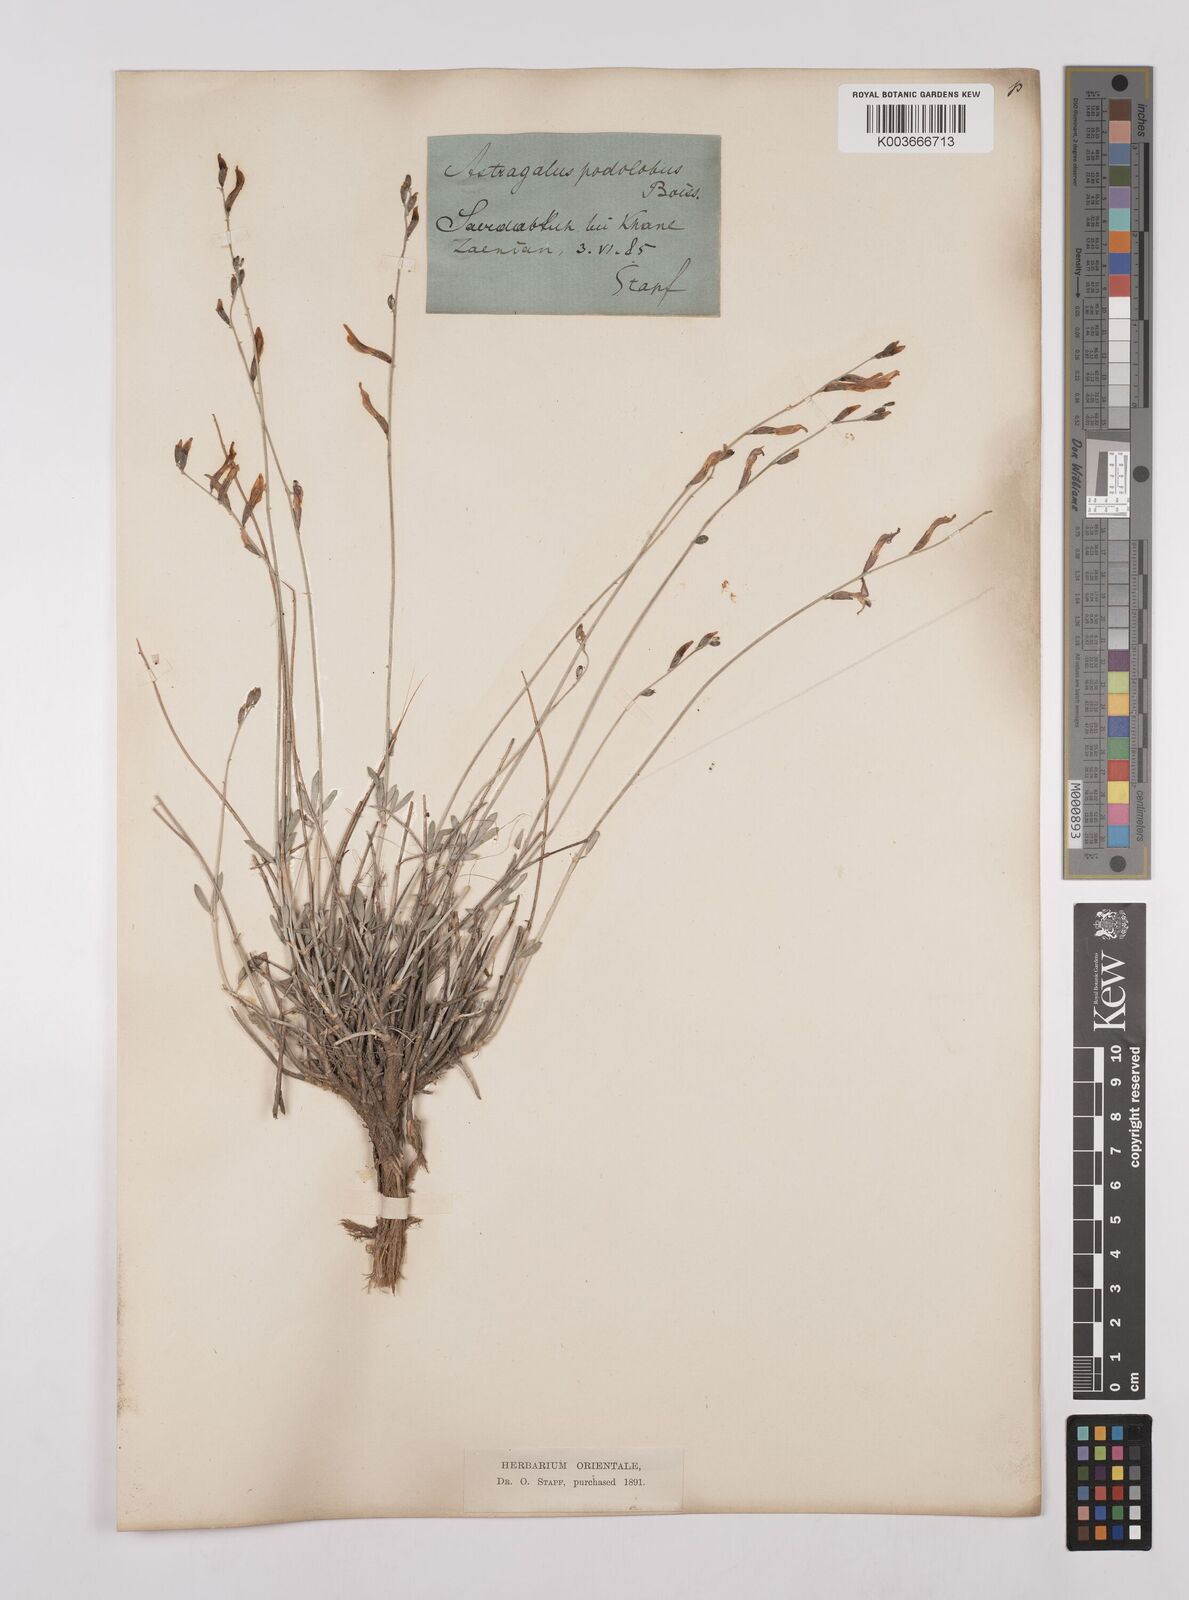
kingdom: Plantae
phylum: Tracheophyta
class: Magnoliopsida
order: Fabales
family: Fabaceae
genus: Astragalus
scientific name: Astragalus podolobus
